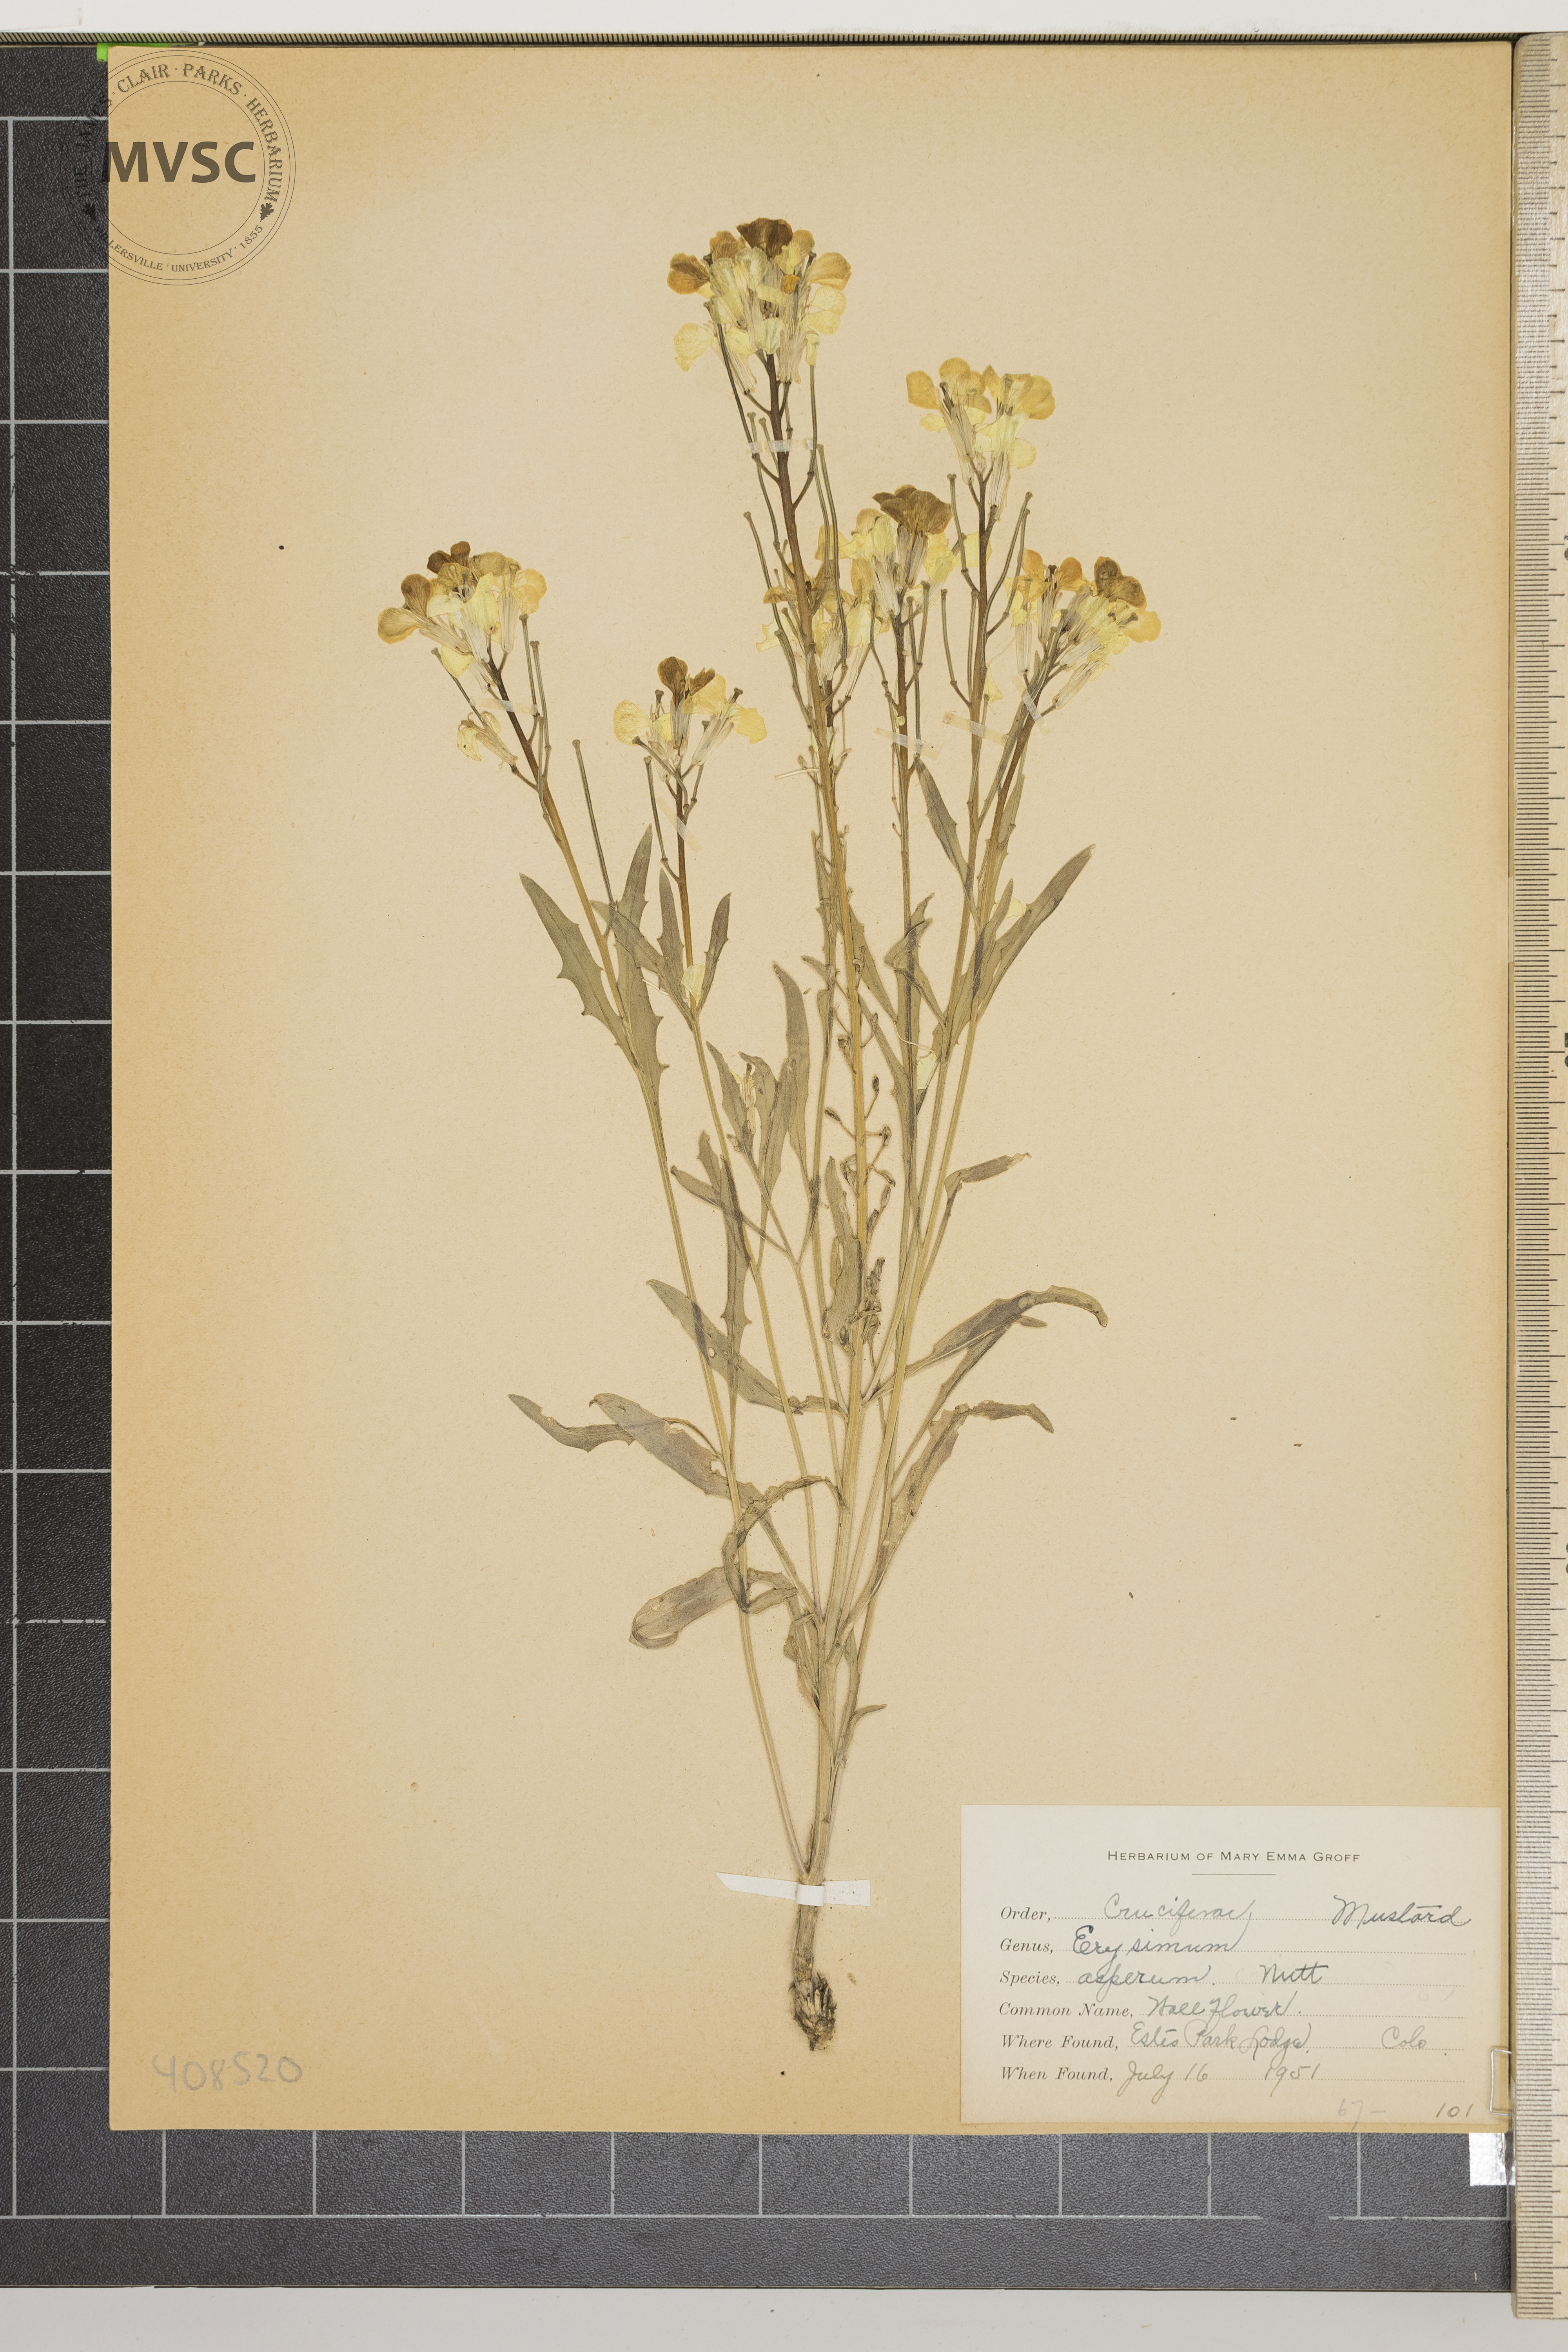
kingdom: Plantae
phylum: Tracheophyta
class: Magnoliopsida
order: Brassicales
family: Brassicaceae
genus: Erysimum
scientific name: Erysimum asperum
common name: Wallflower
